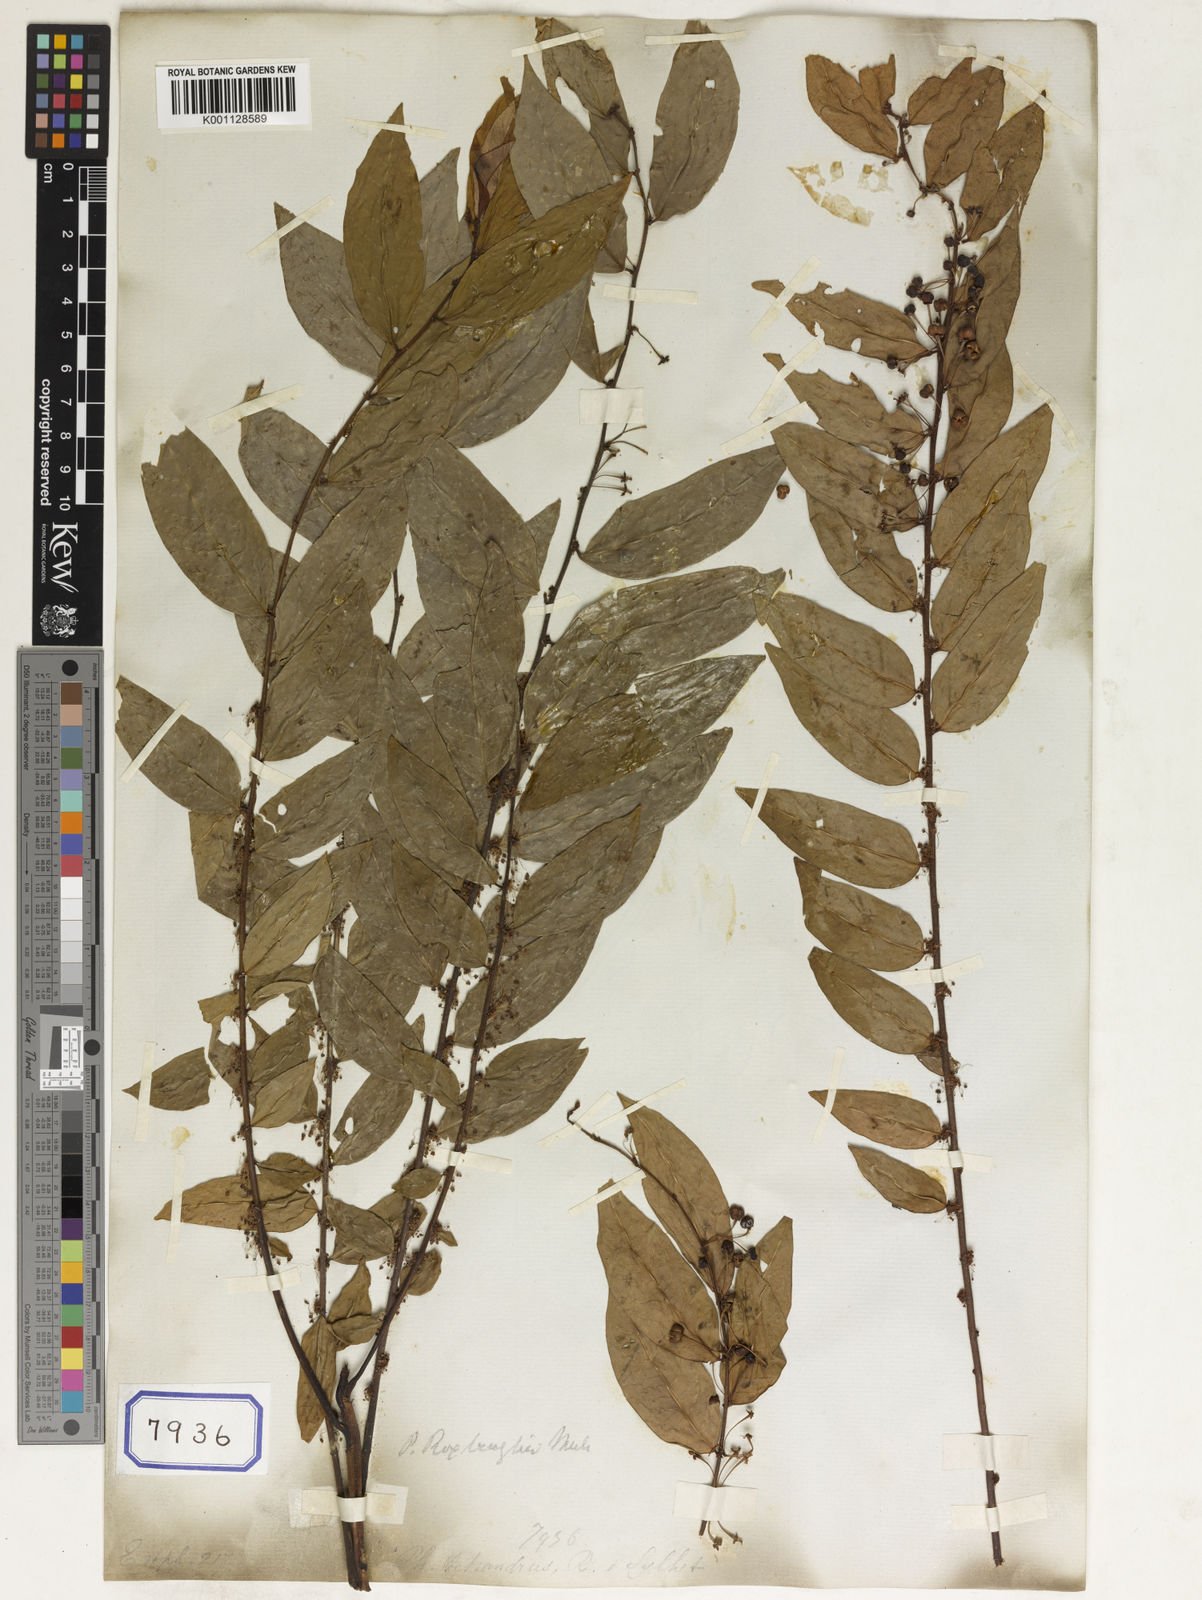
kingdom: Plantae
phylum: Tracheophyta
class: Magnoliopsida
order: Malpighiales
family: Euphorbiaceae
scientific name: Euphorbiaceae
